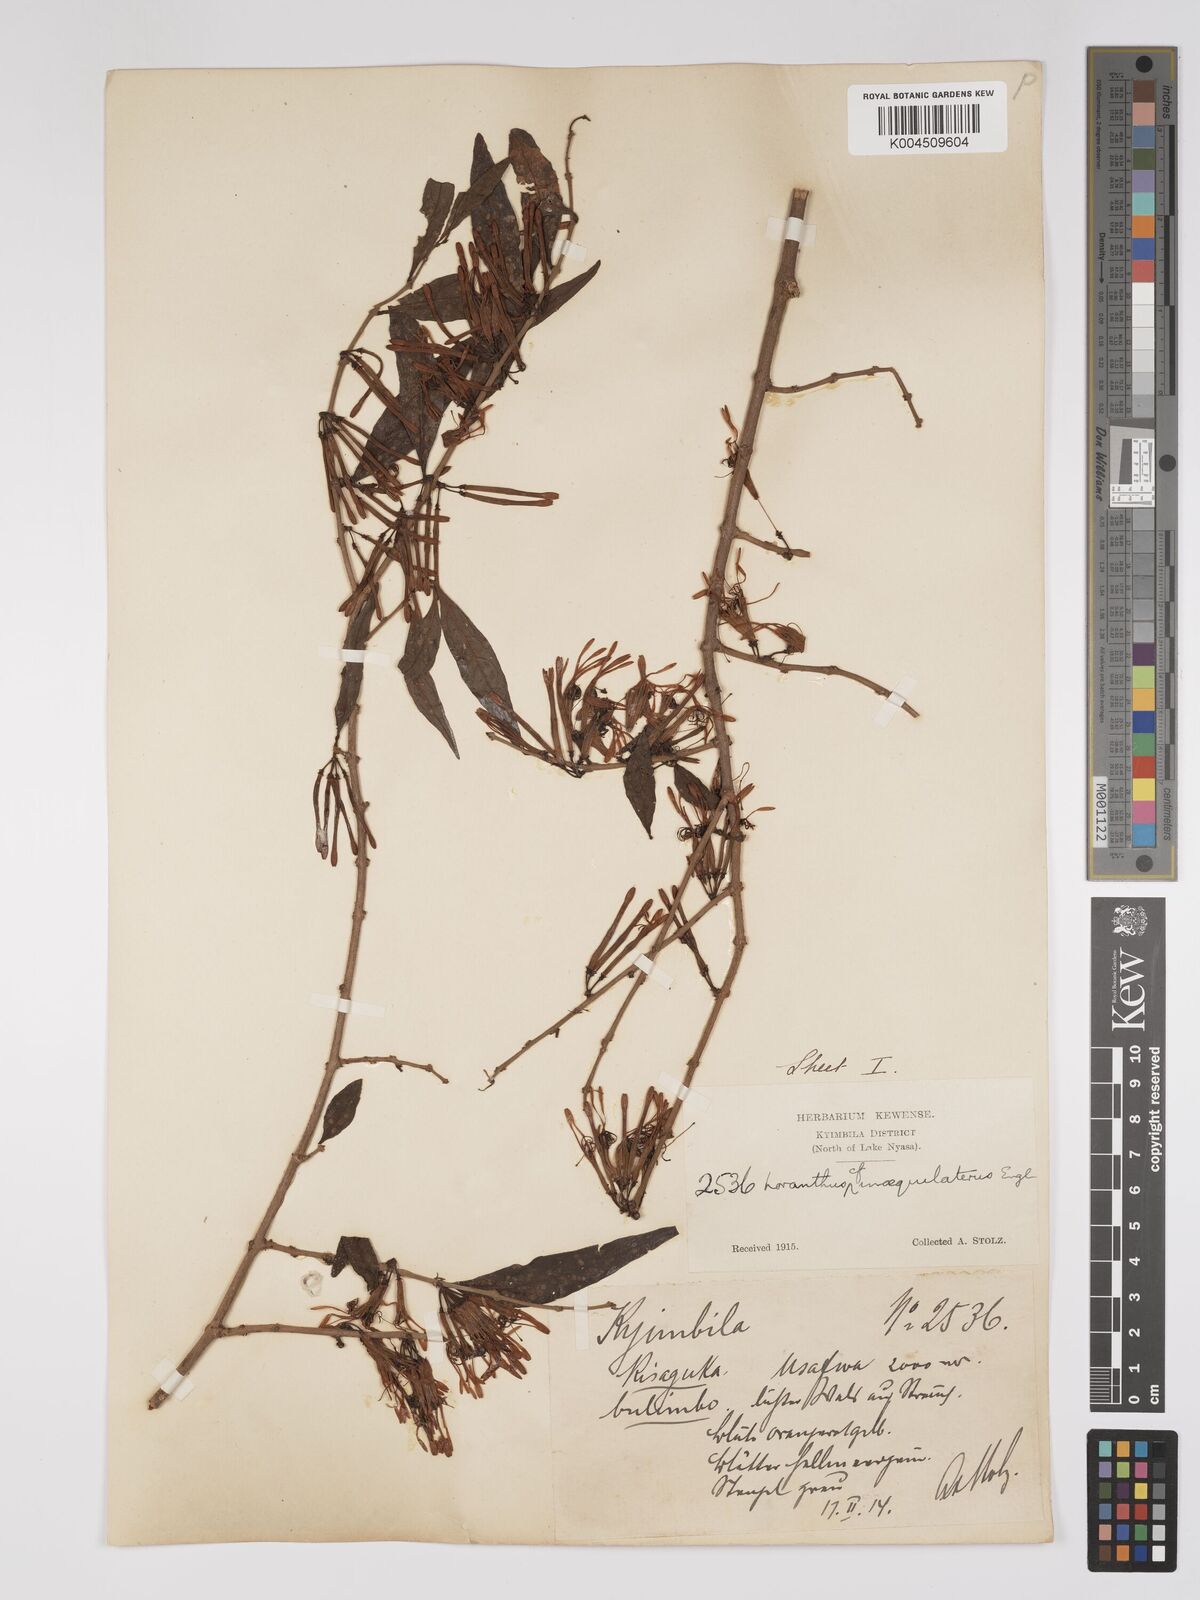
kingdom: Plantae
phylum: Tracheophyta
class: Magnoliopsida
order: Santalales
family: Loranthaceae
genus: Englerina
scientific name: Englerina inaequilatera
